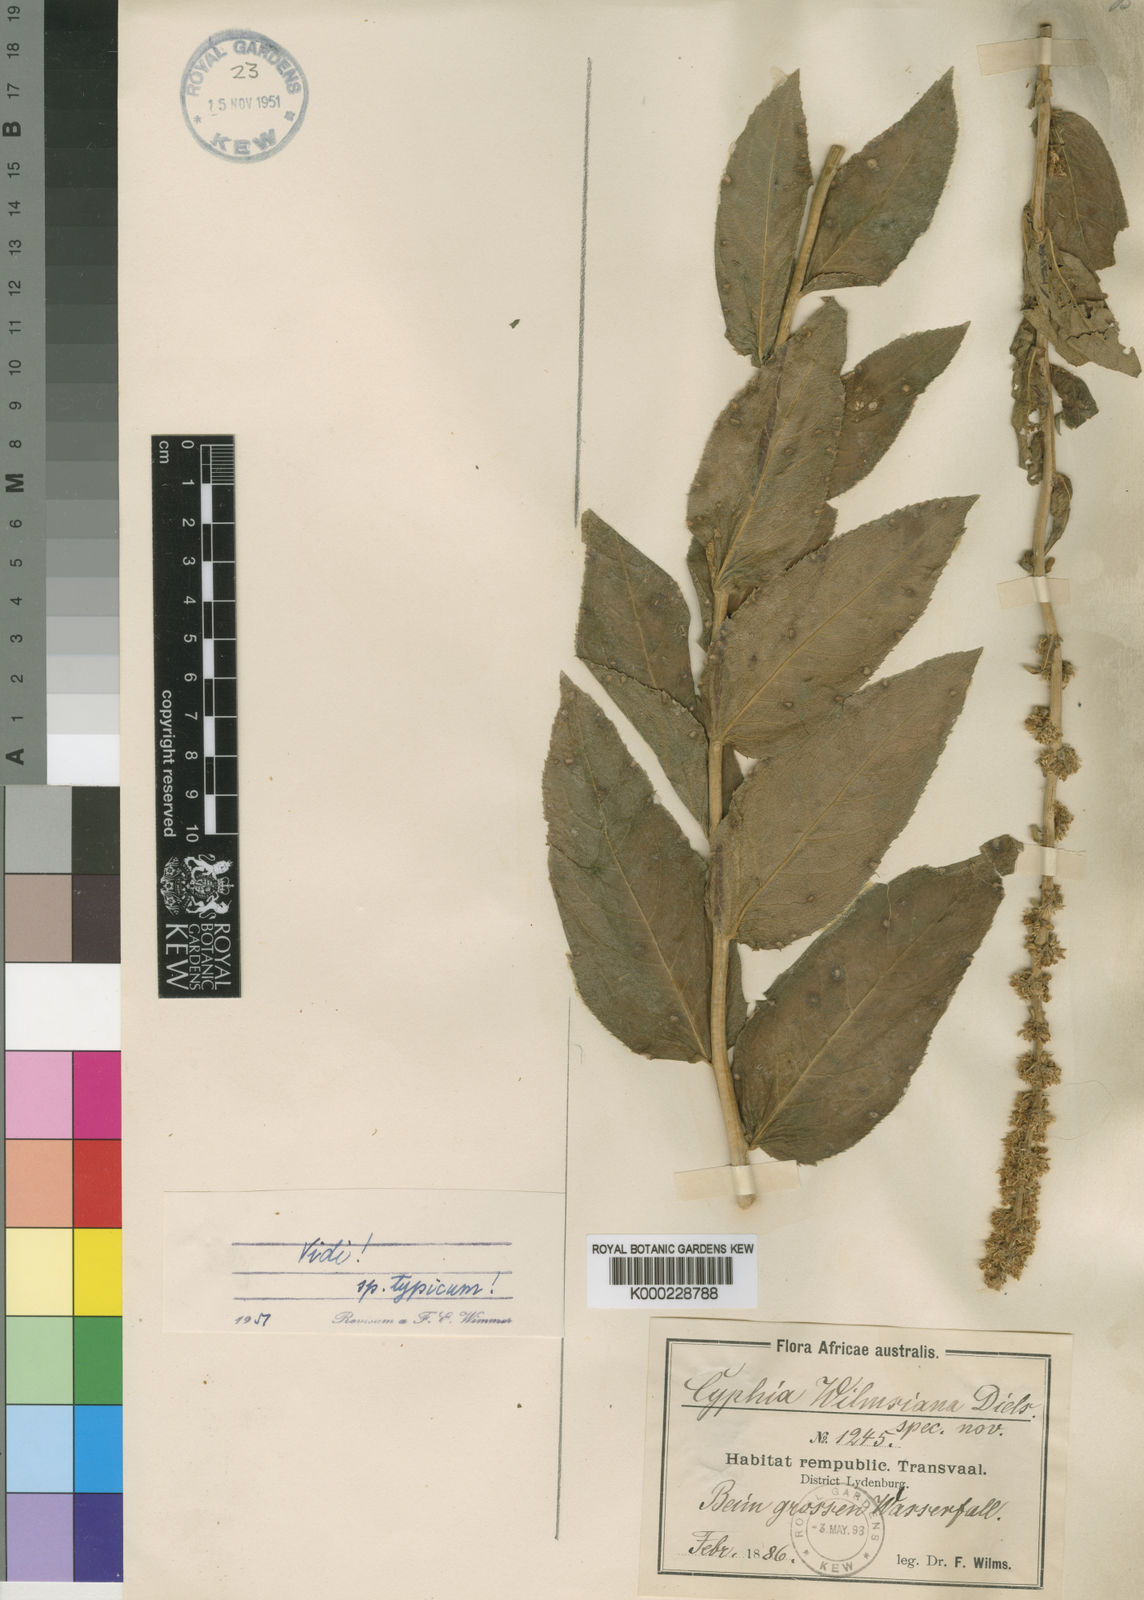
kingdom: Plantae
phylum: Tracheophyta
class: Magnoliopsida
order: Asterales
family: Campanulaceae
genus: Cyphia
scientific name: Cyphia elata
